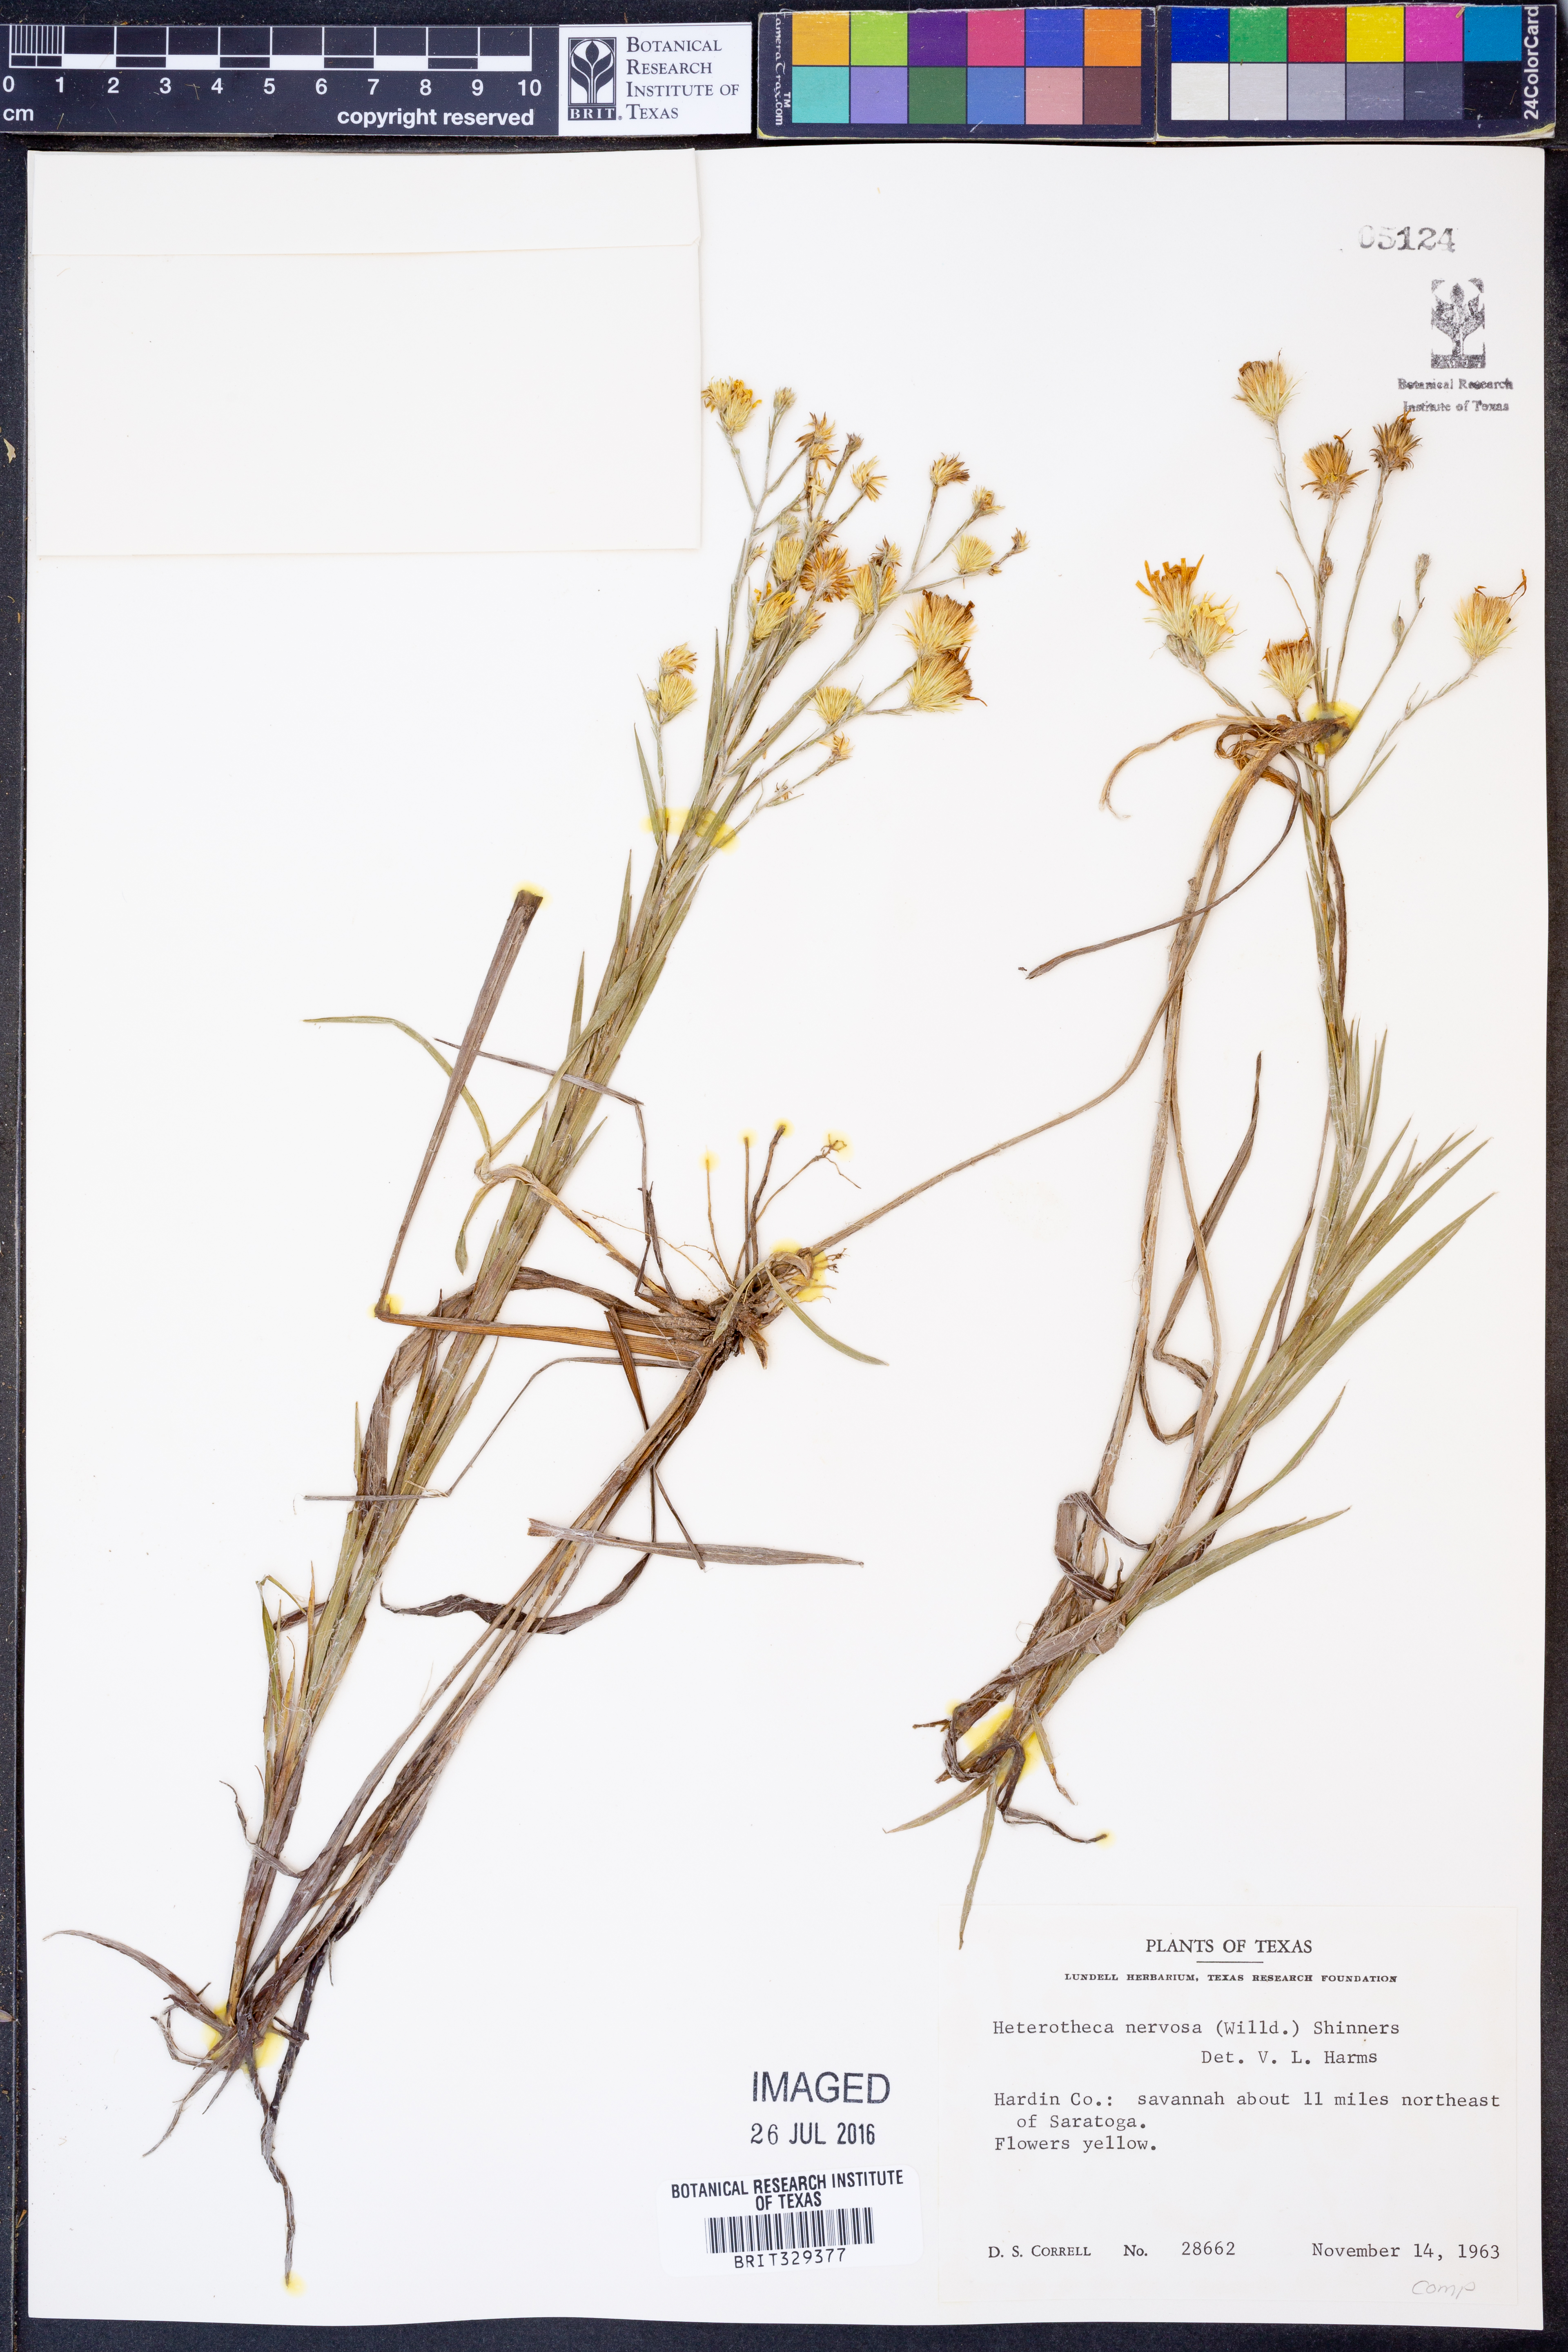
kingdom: Plantae
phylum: Tracheophyta
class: Magnoliopsida
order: Asterales
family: Asteraceae
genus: Pityopsis
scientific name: Pityopsis graminifolia
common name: Grass-leaf golden-aster
